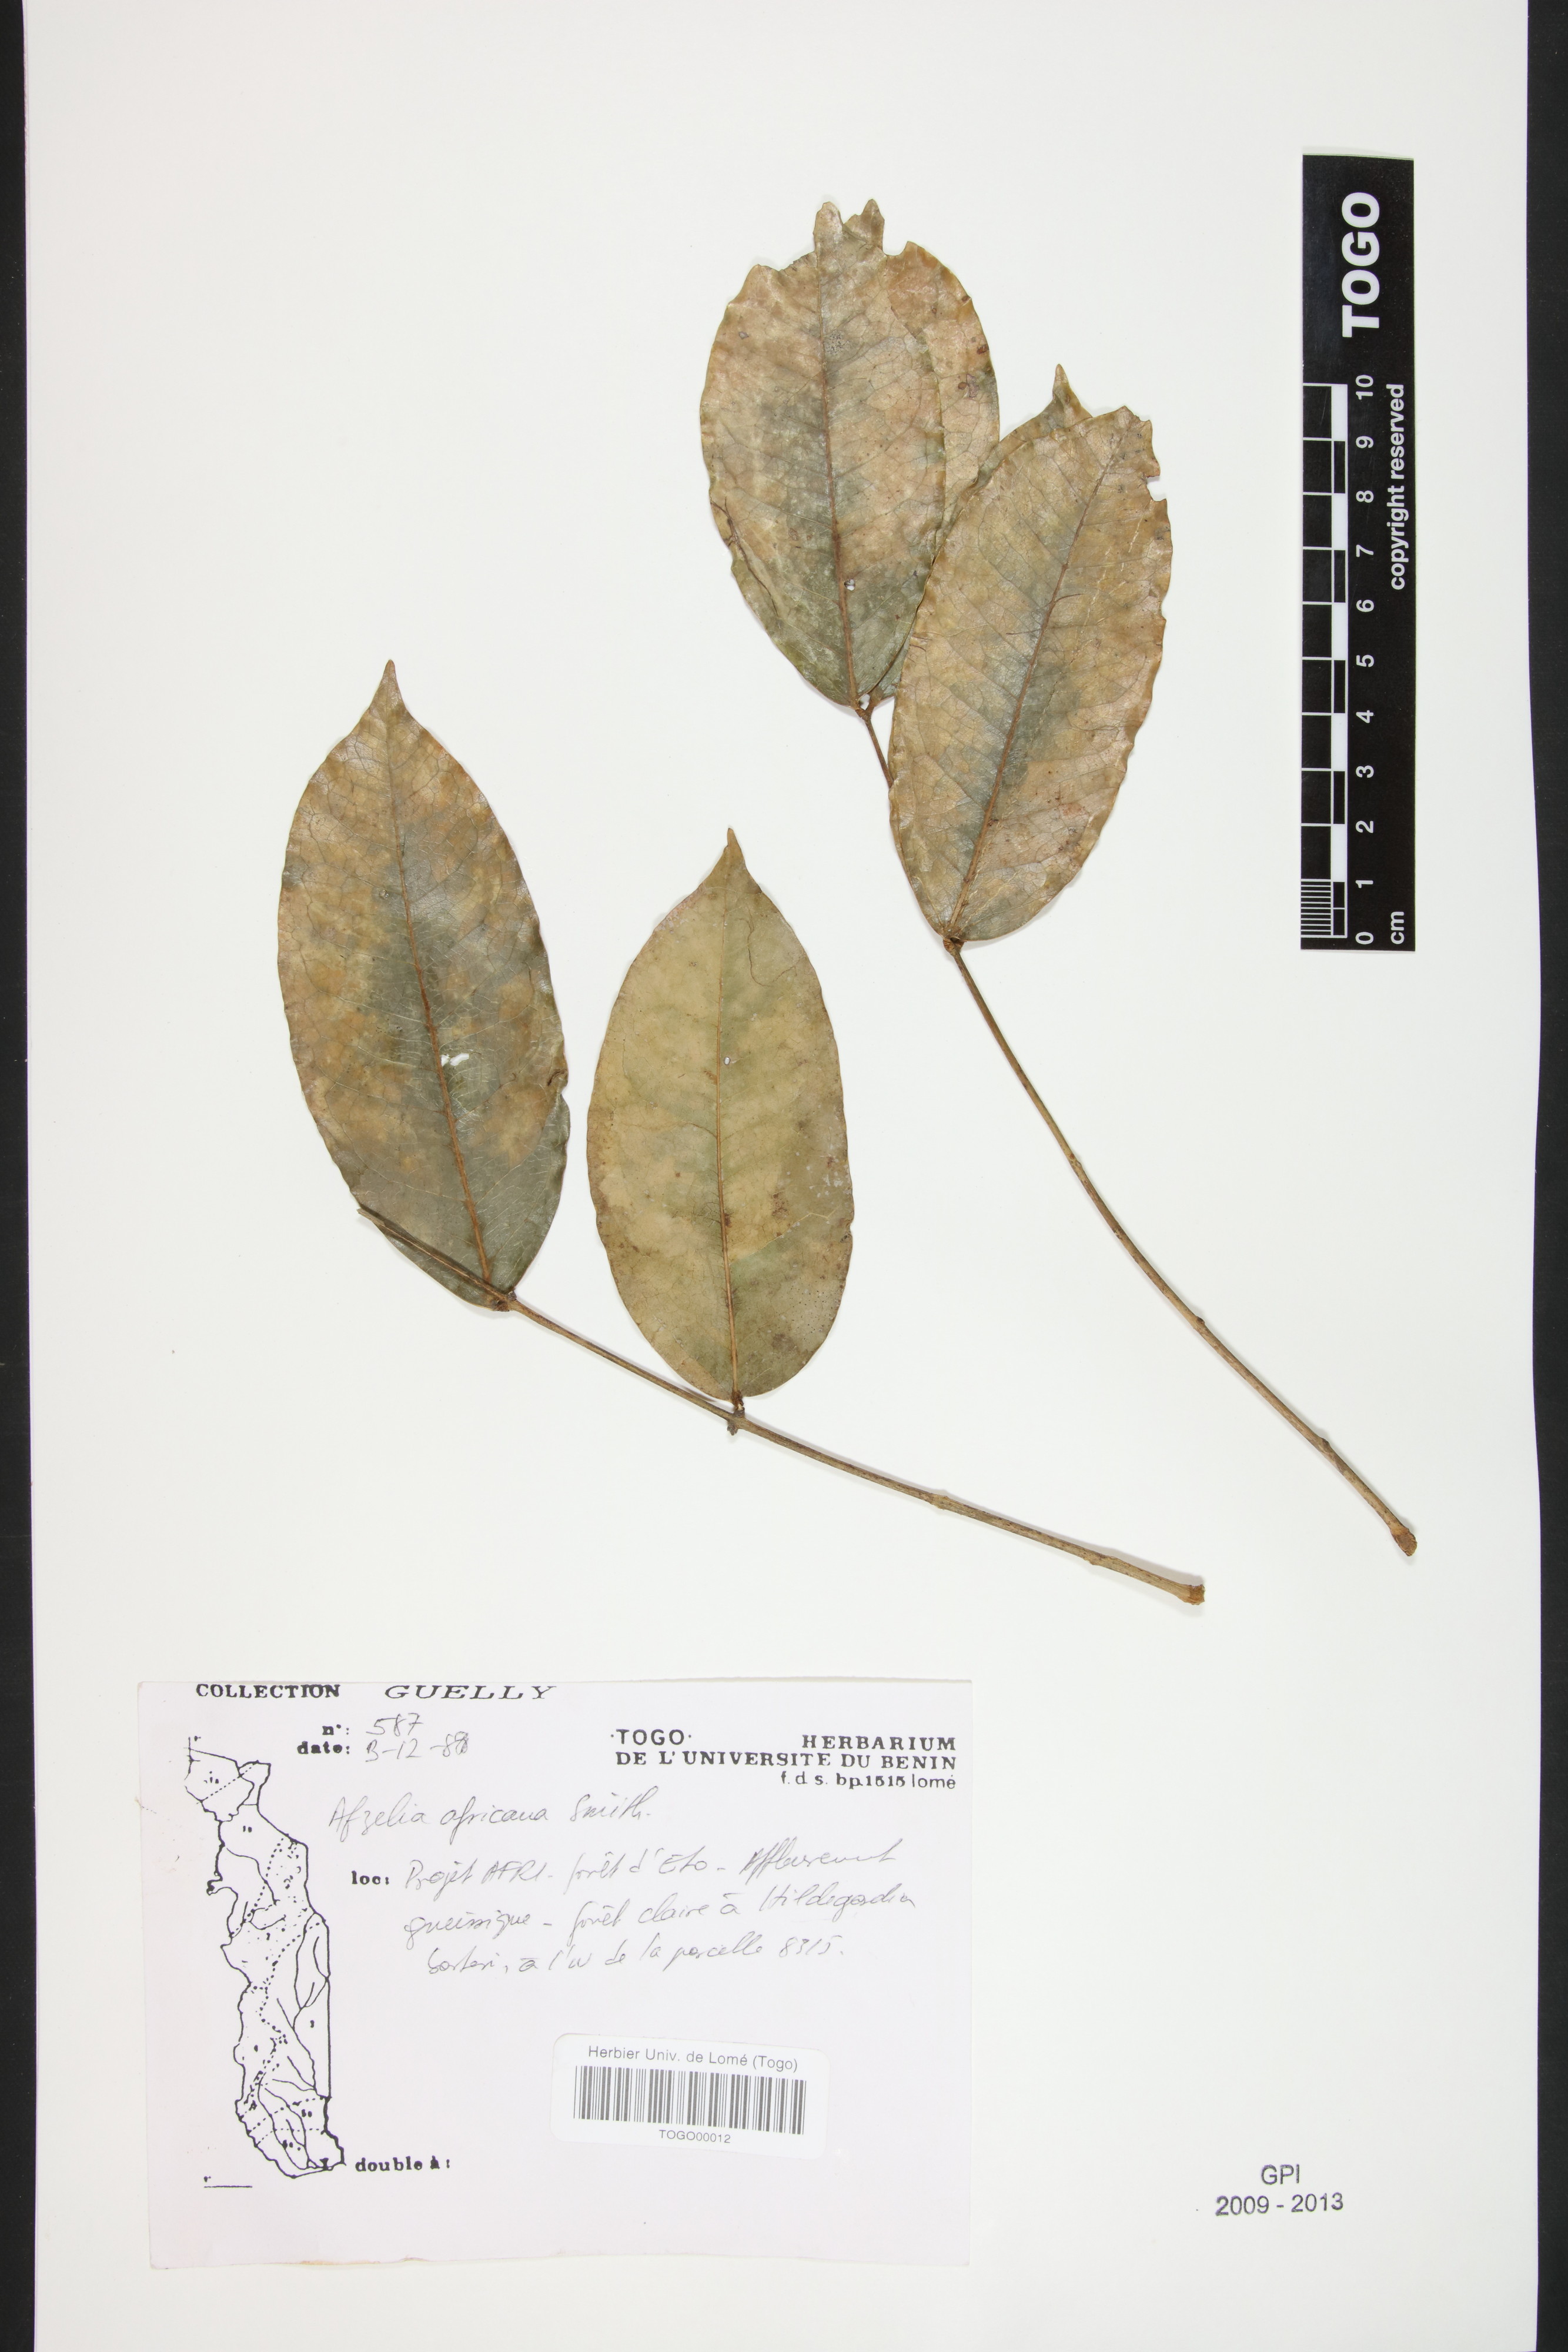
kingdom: Plantae
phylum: Tracheophyta
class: Magnoliopsida
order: Fabales
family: Fabaceae
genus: Afzelia
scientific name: Afzelia africana
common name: African-mahogany
